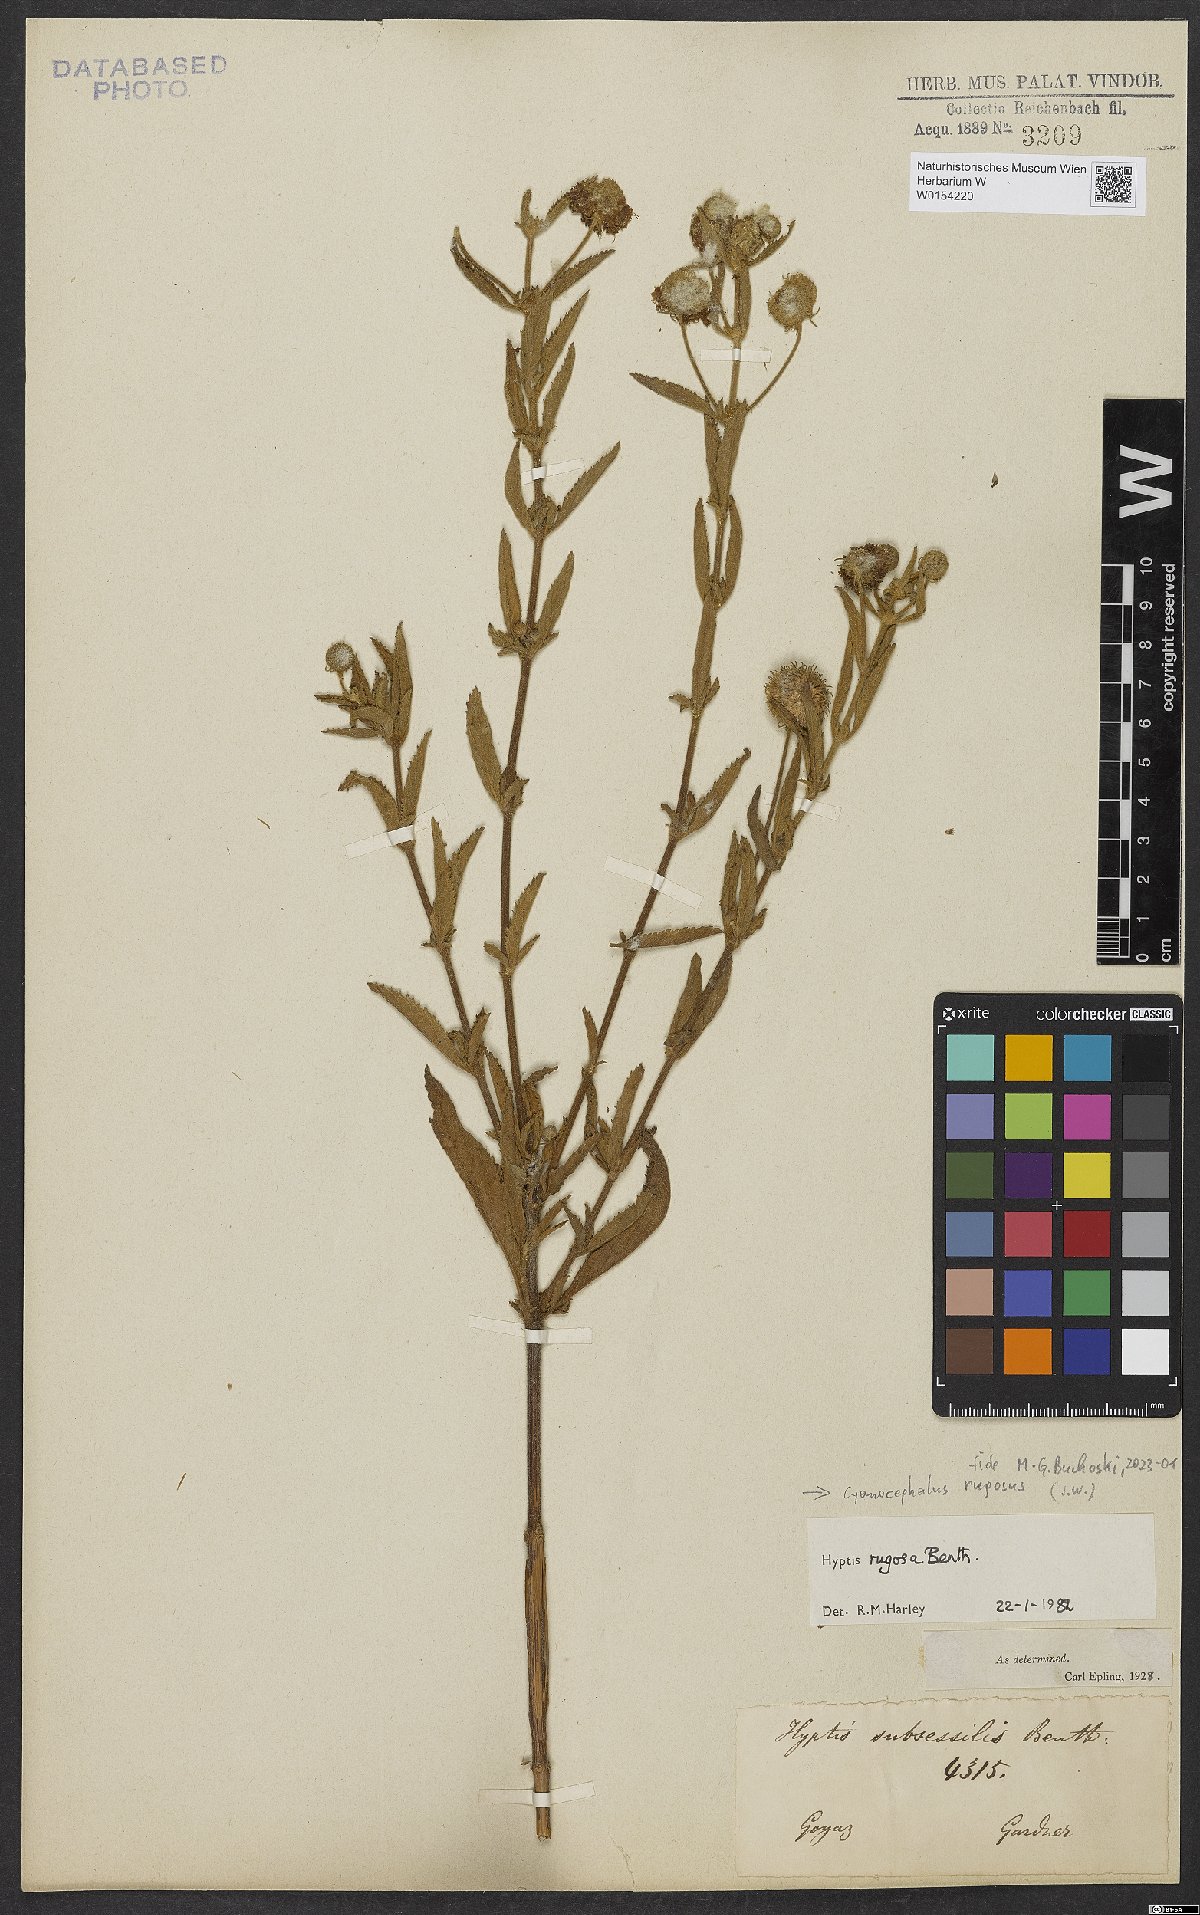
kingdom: Plantae
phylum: Tracheophyta
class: Magnoliopsida
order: Lamiales
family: Lamiaceae
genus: Cyanocephalus
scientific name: Cyanocephalus rugosus
